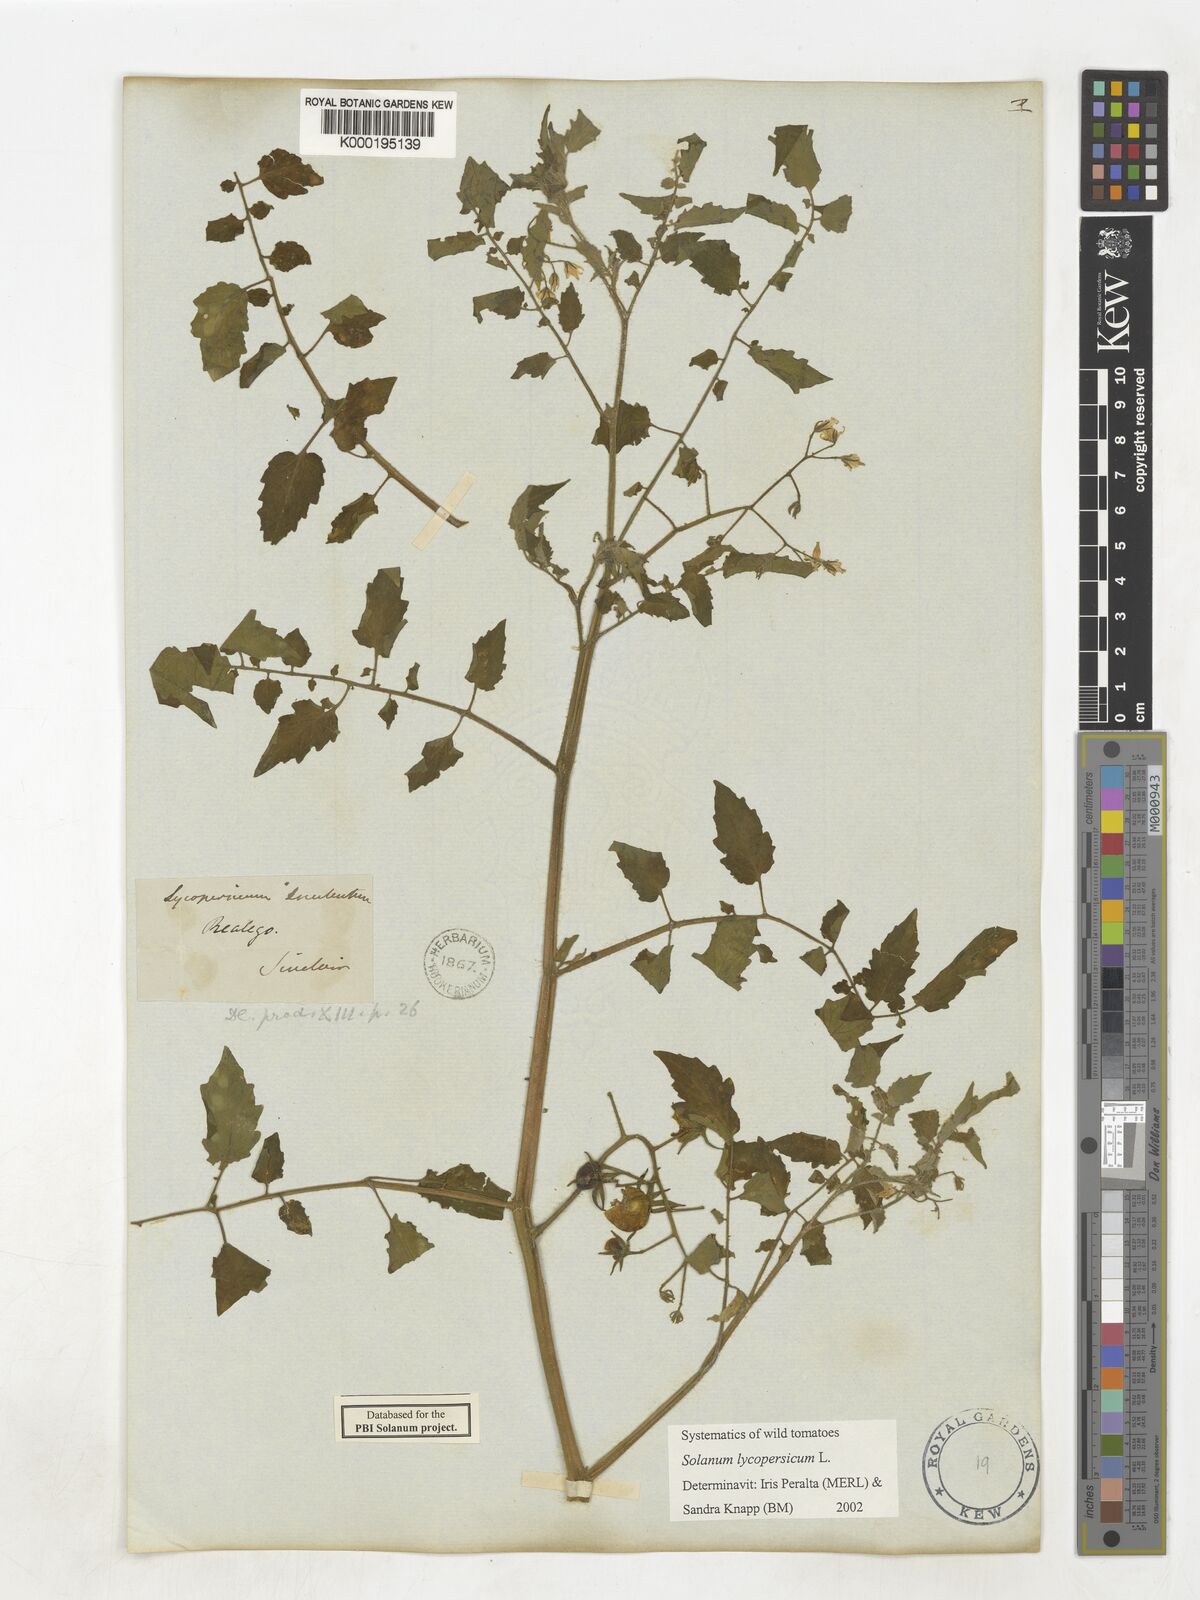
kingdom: Plantae
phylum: Tracheophyta
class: Magnoliopsida
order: Solanales
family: Solanaceae
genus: Solanum
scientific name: Solanum lycopersicum
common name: Garden tomato
